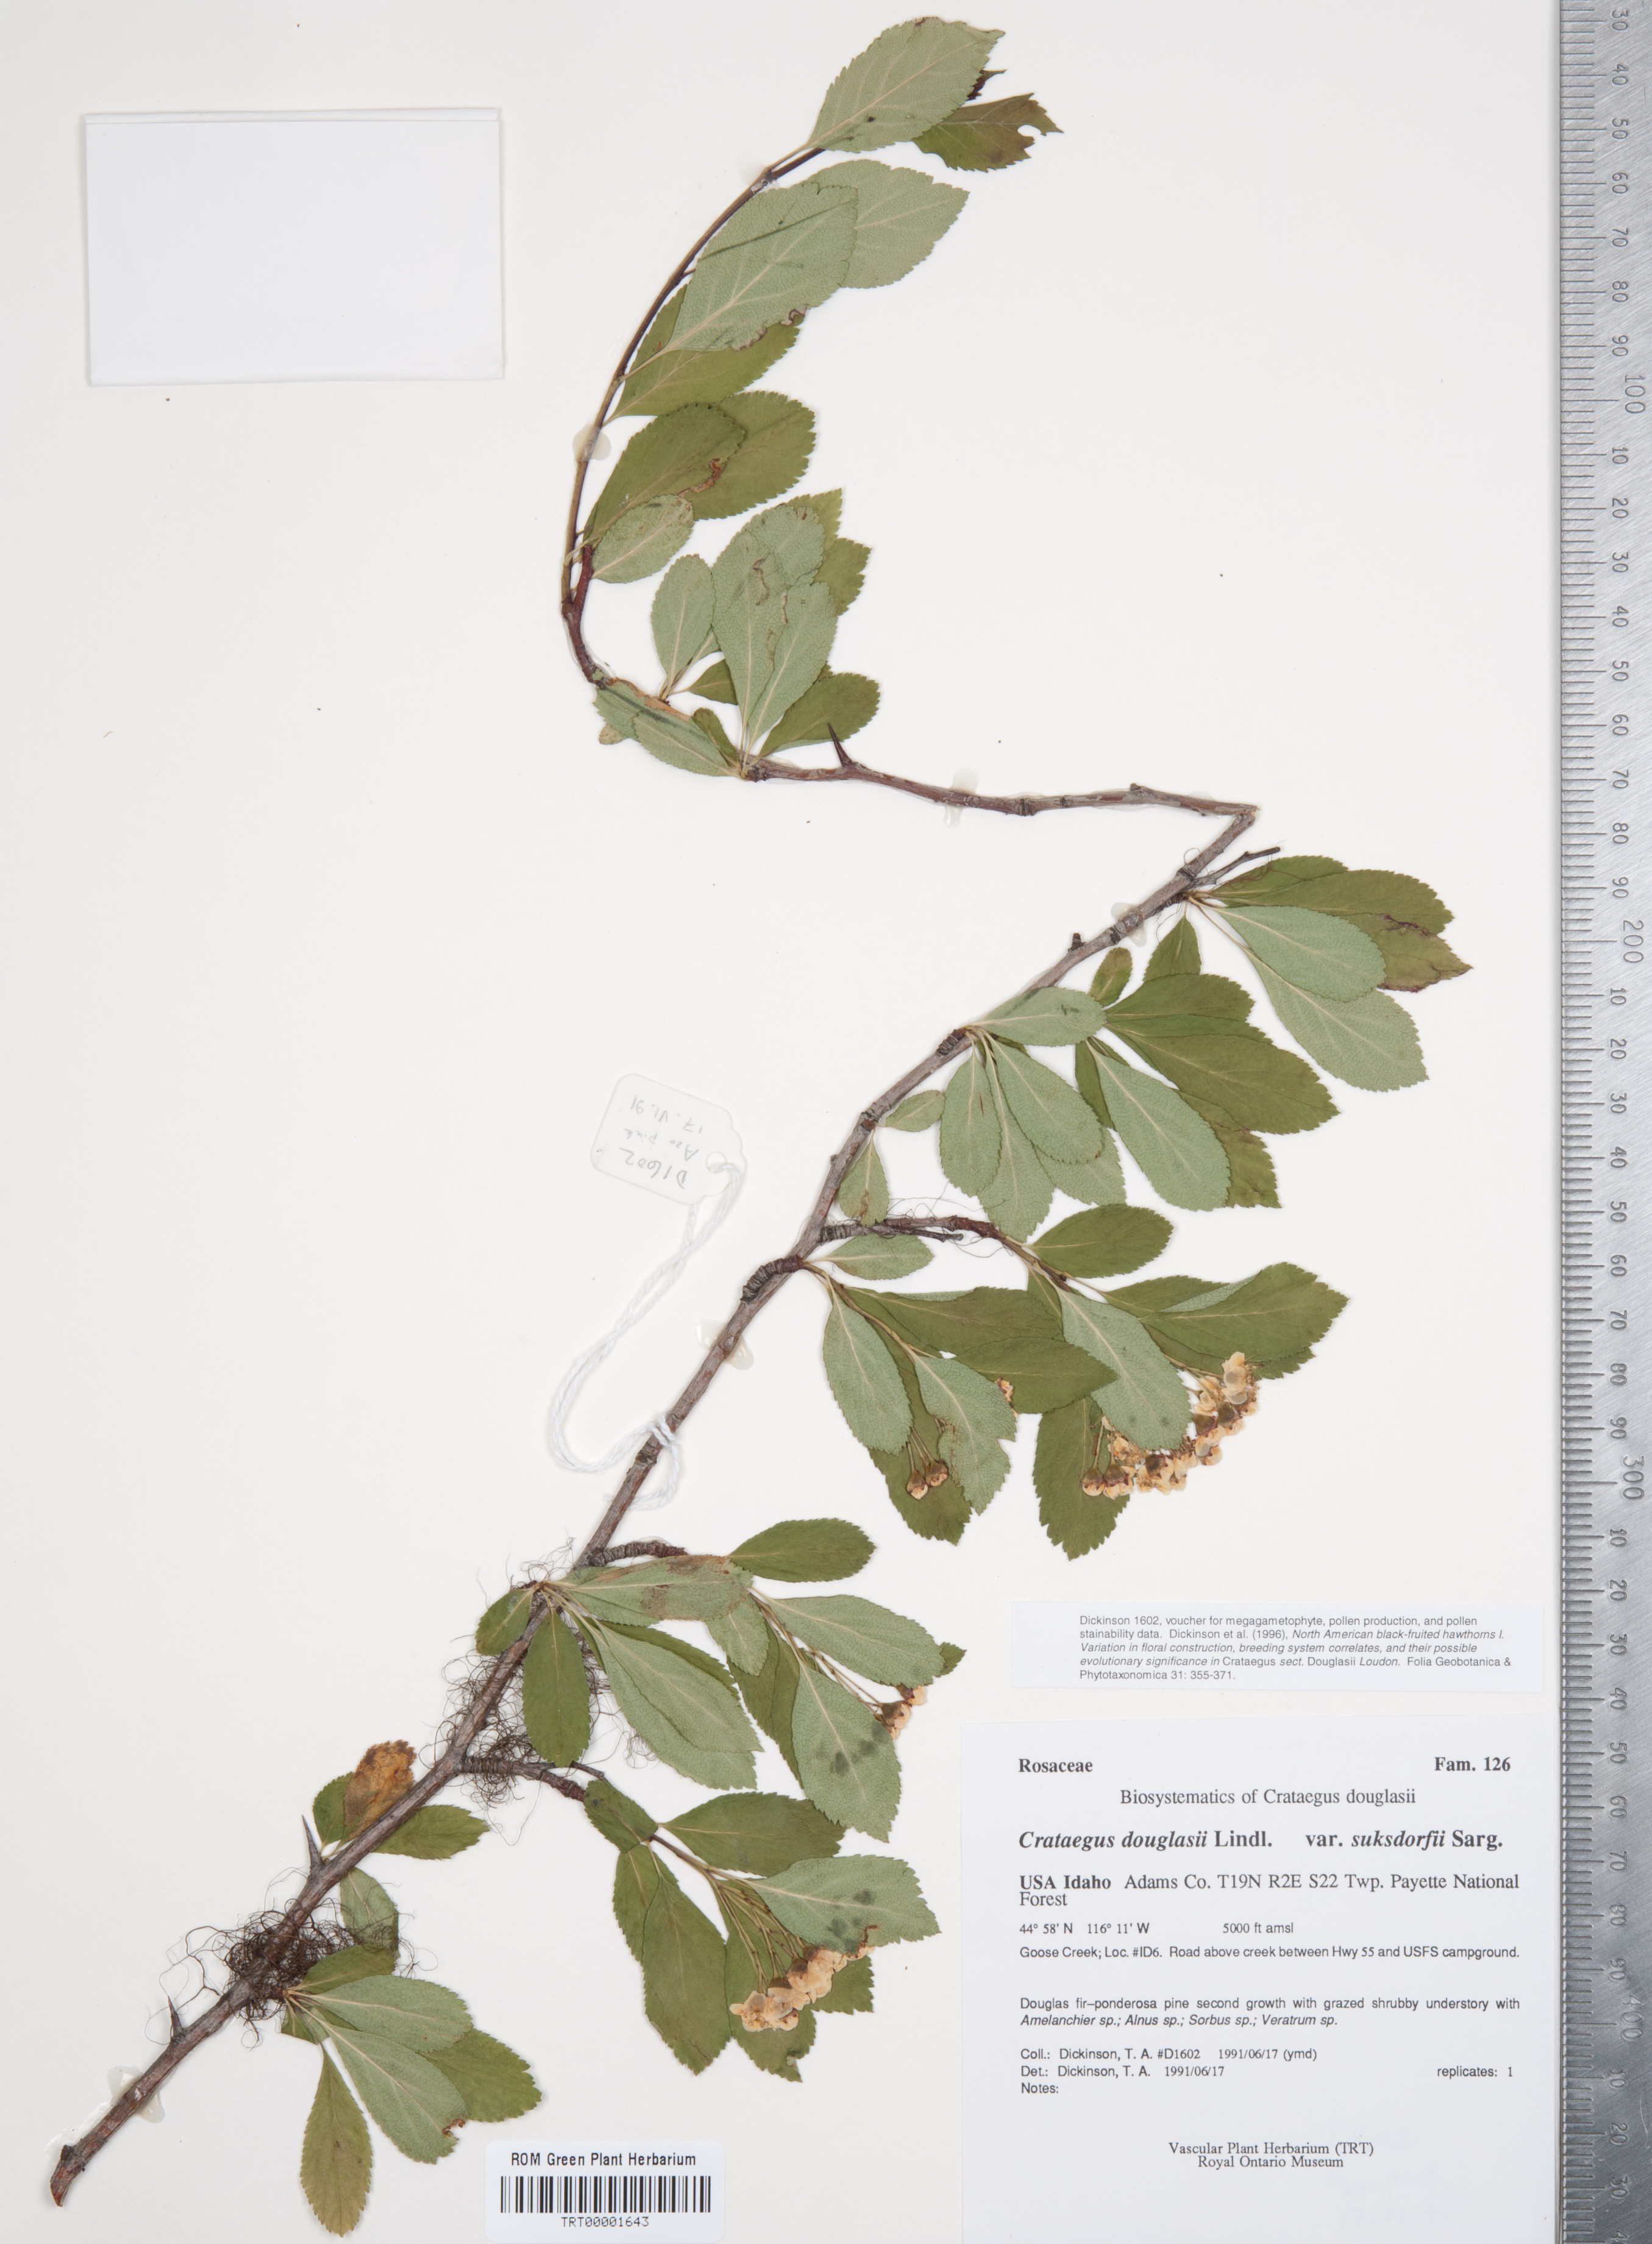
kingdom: Plantae
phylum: Tracheophyta
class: Magnoliopsida
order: Rosales
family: Rosaceae
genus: Crataegus
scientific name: Crataegus gaylussacia
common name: Huckleberry hawthorn
